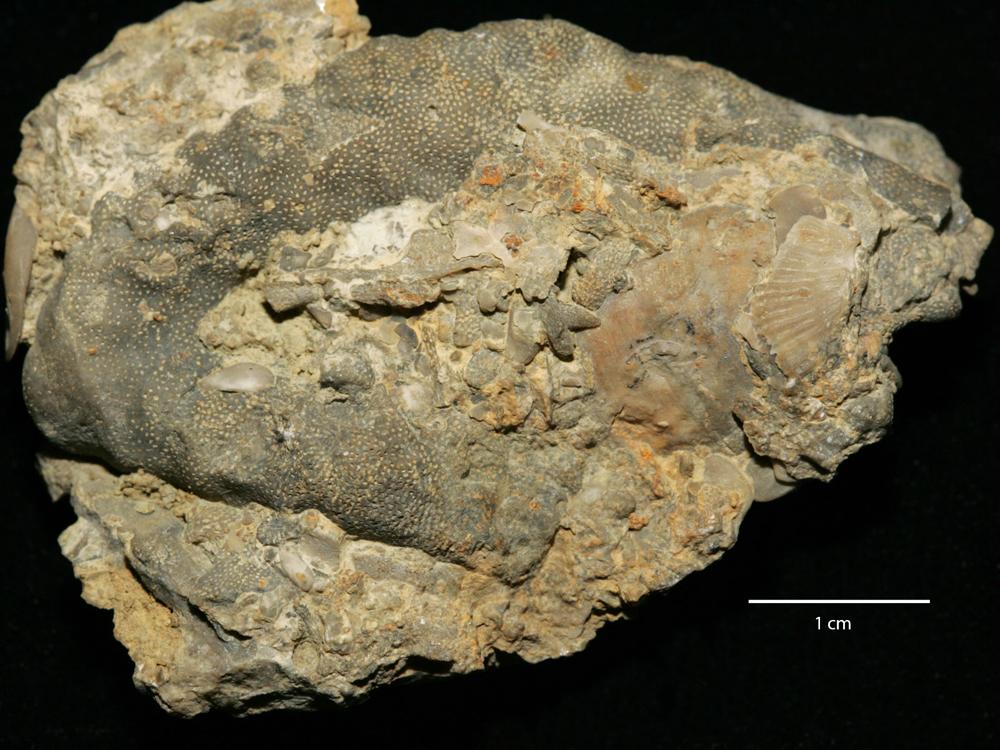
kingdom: Animalia
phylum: Bryozoa
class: Stenolaemata
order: Trepostomatida
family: Monticuliporidae
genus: Homotrypa
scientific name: Homotrypa similis
